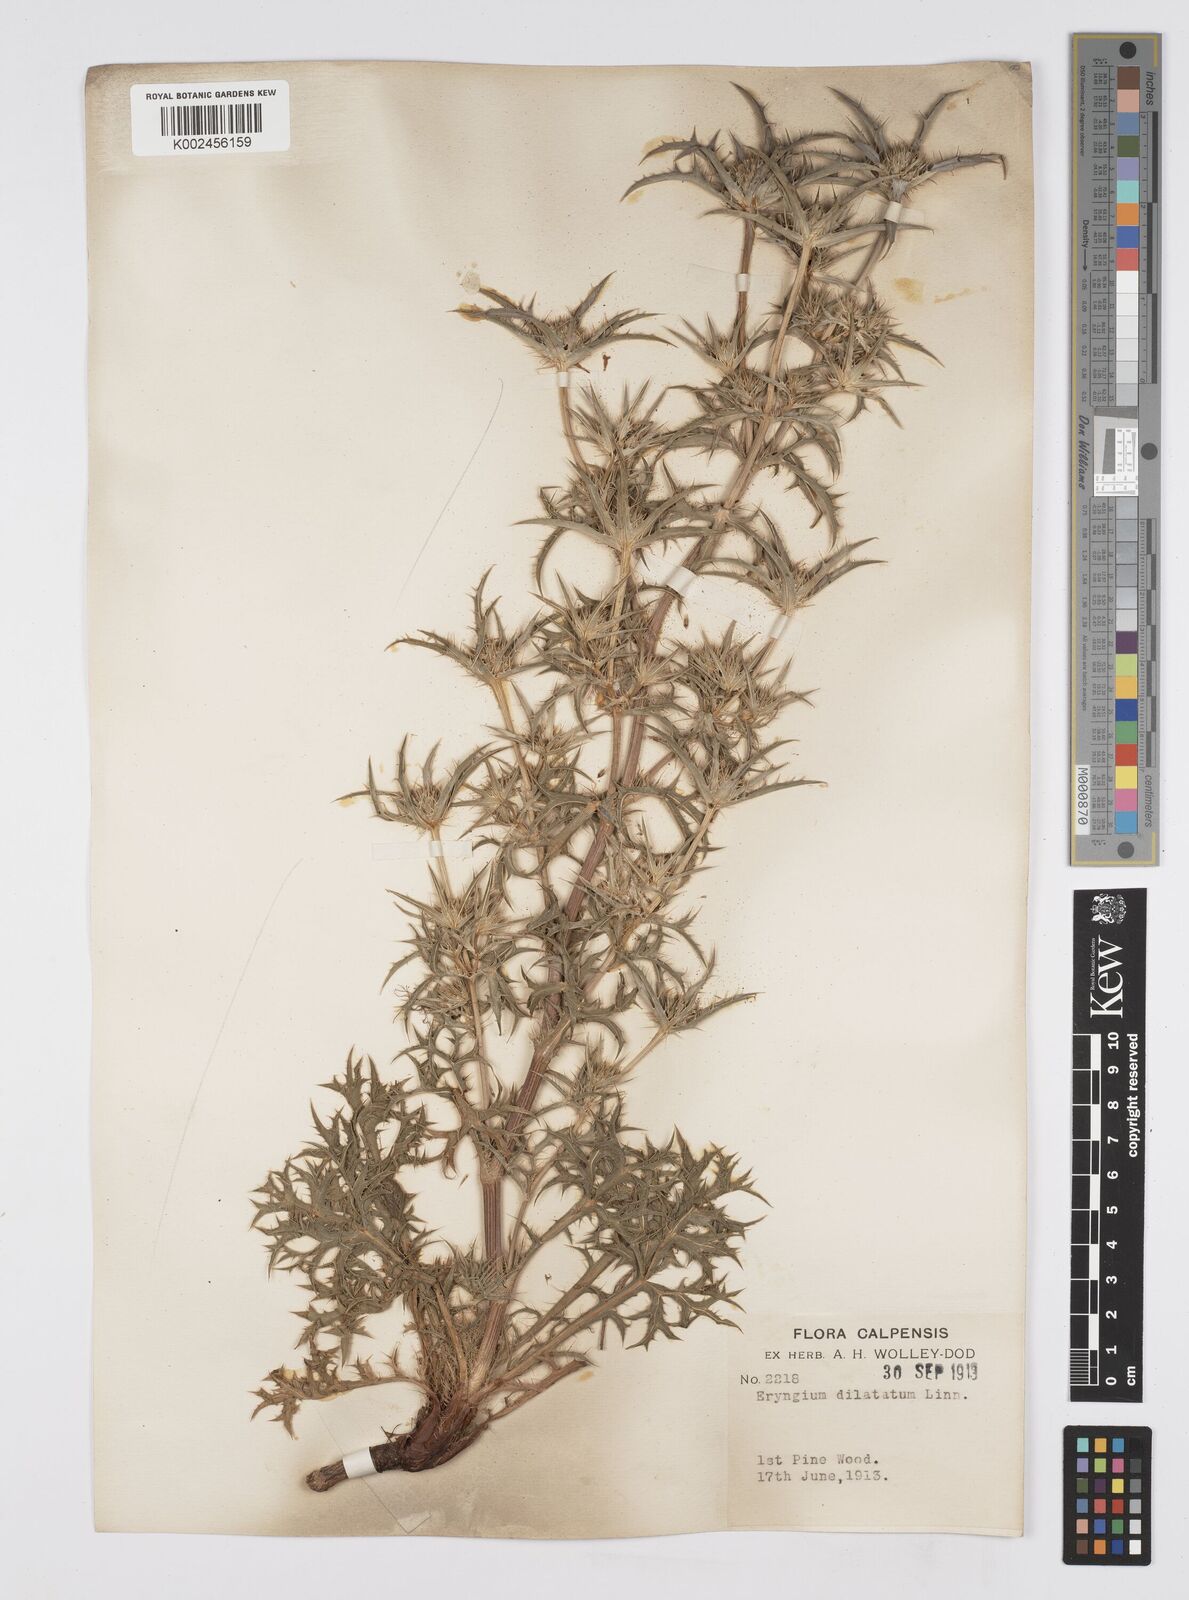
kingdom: Plantae
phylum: Tracheophyta
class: Magnoliopsida
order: Apiales
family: Apiaceae
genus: Eryngium
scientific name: Eryngium dilatatum
